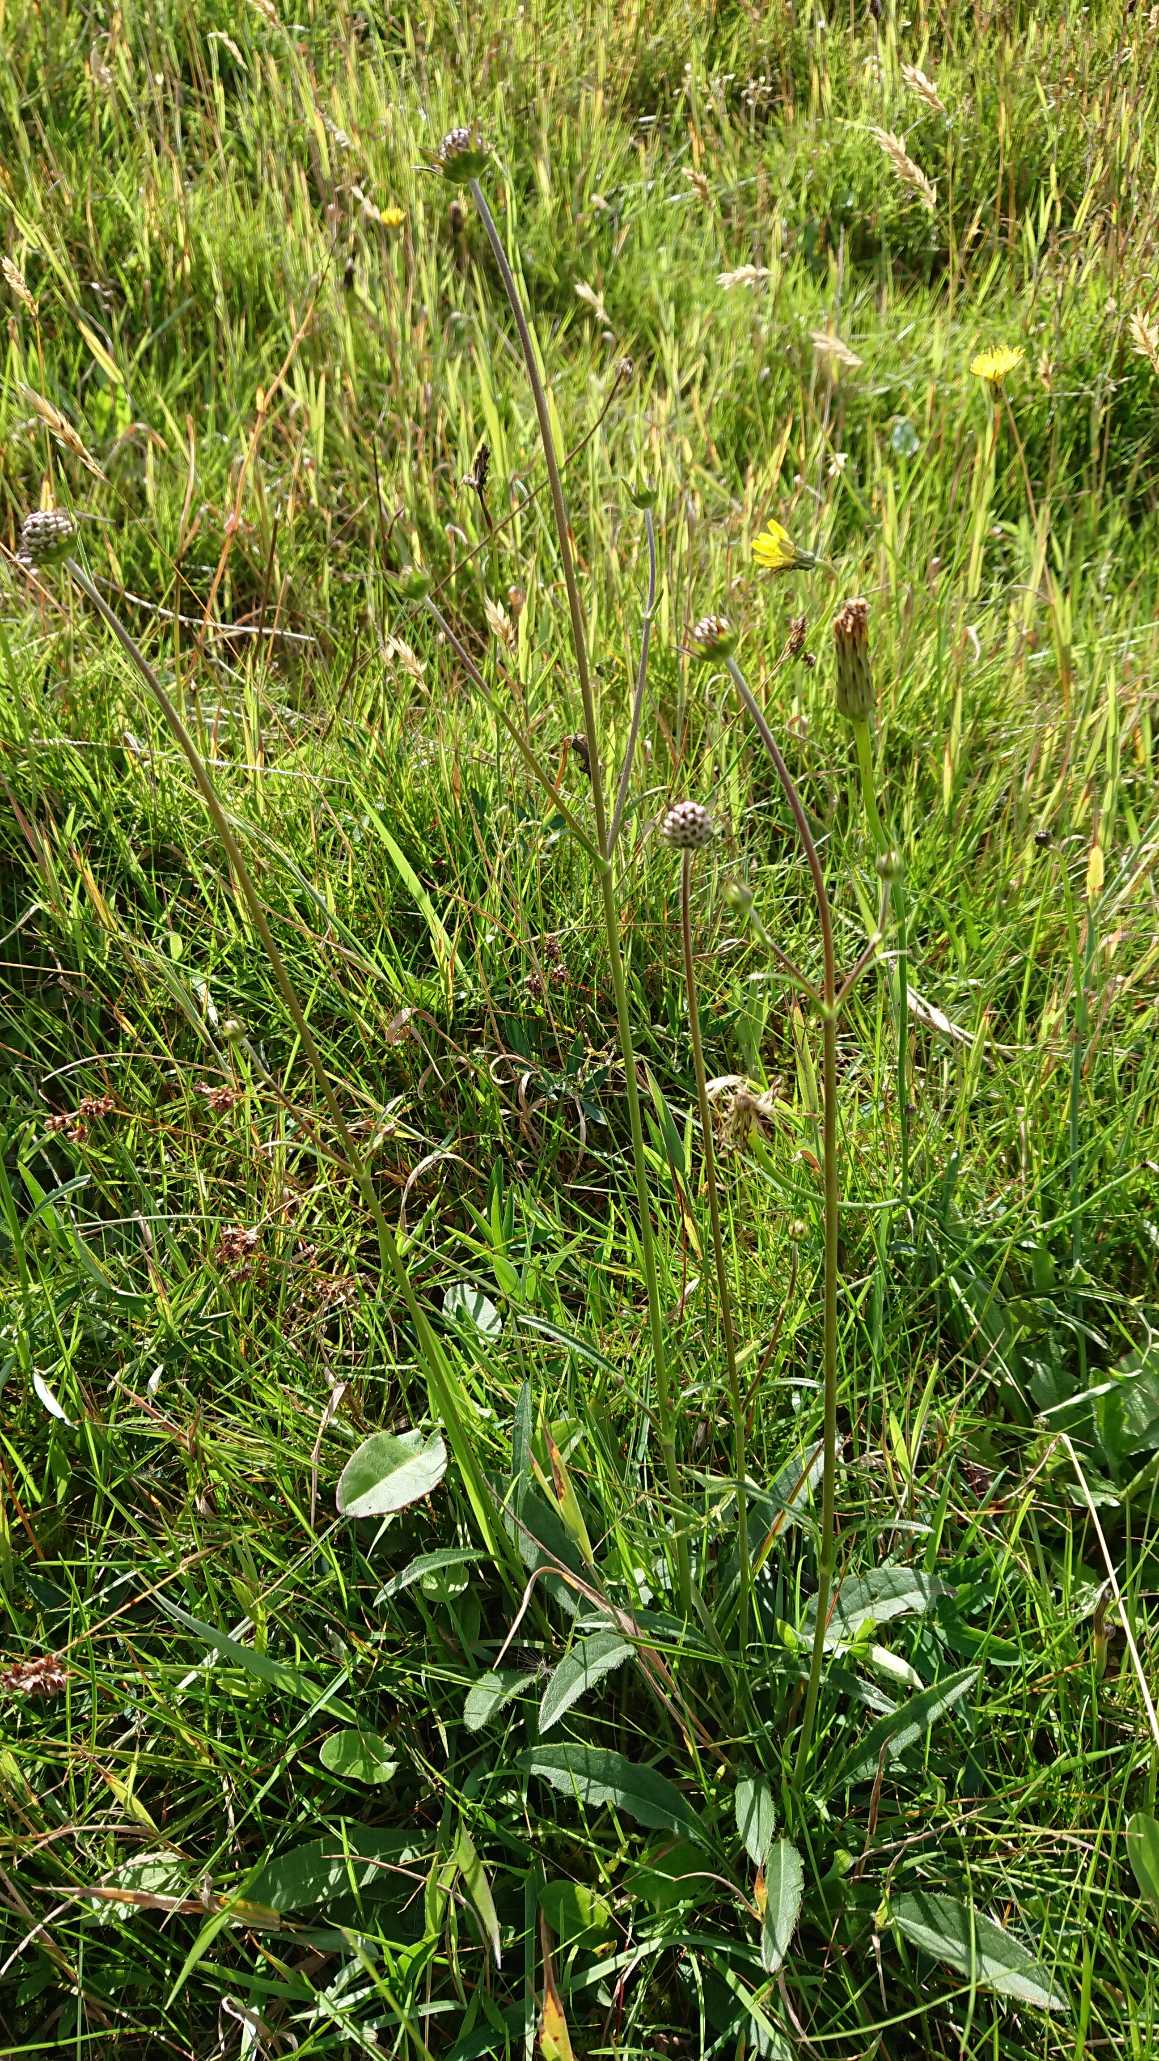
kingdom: Plantae
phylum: Tracheophyta
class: Magnoliopsida
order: Dipsacales
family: Caprifoliaceae
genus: Succisa
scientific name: Succisa pratensis
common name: Djævelsbid
